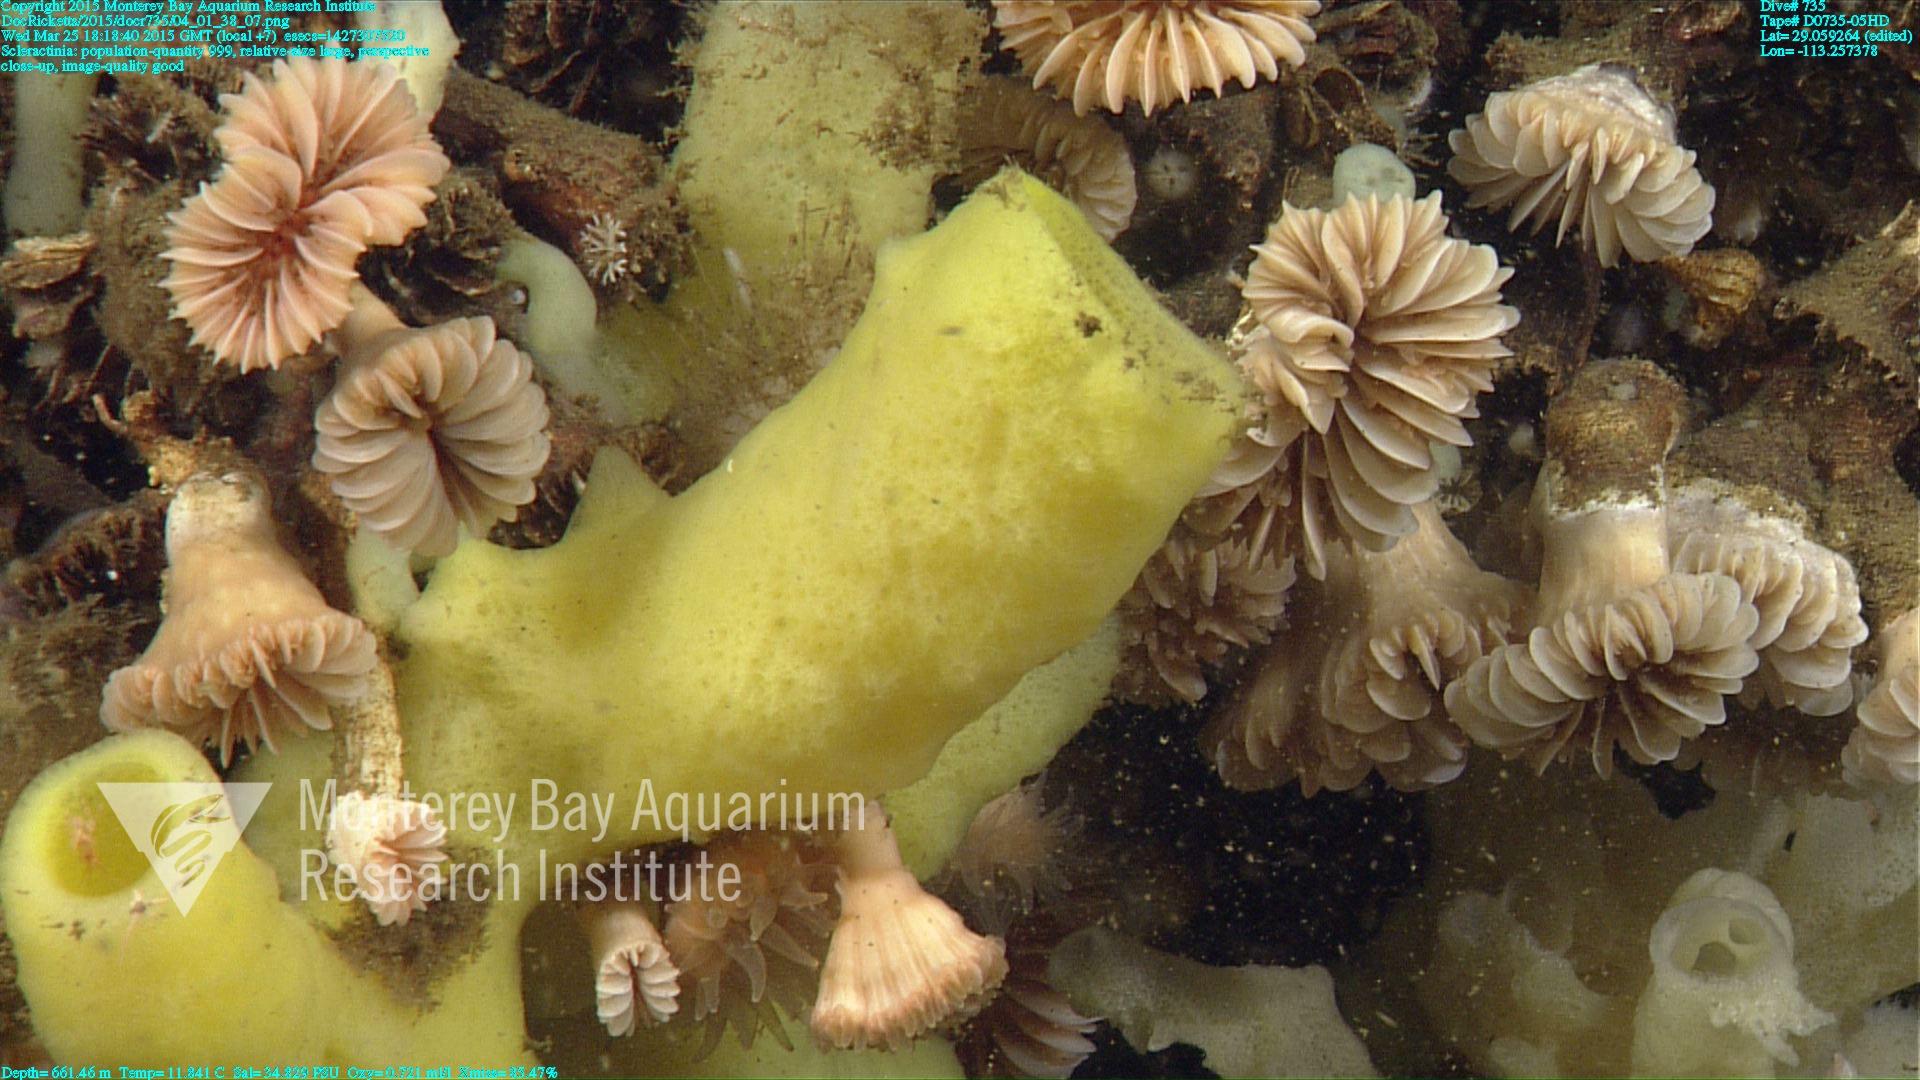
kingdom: Animalia
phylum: Cnidaria
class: Anthozoa
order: Scleractinia
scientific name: Scleractinia
